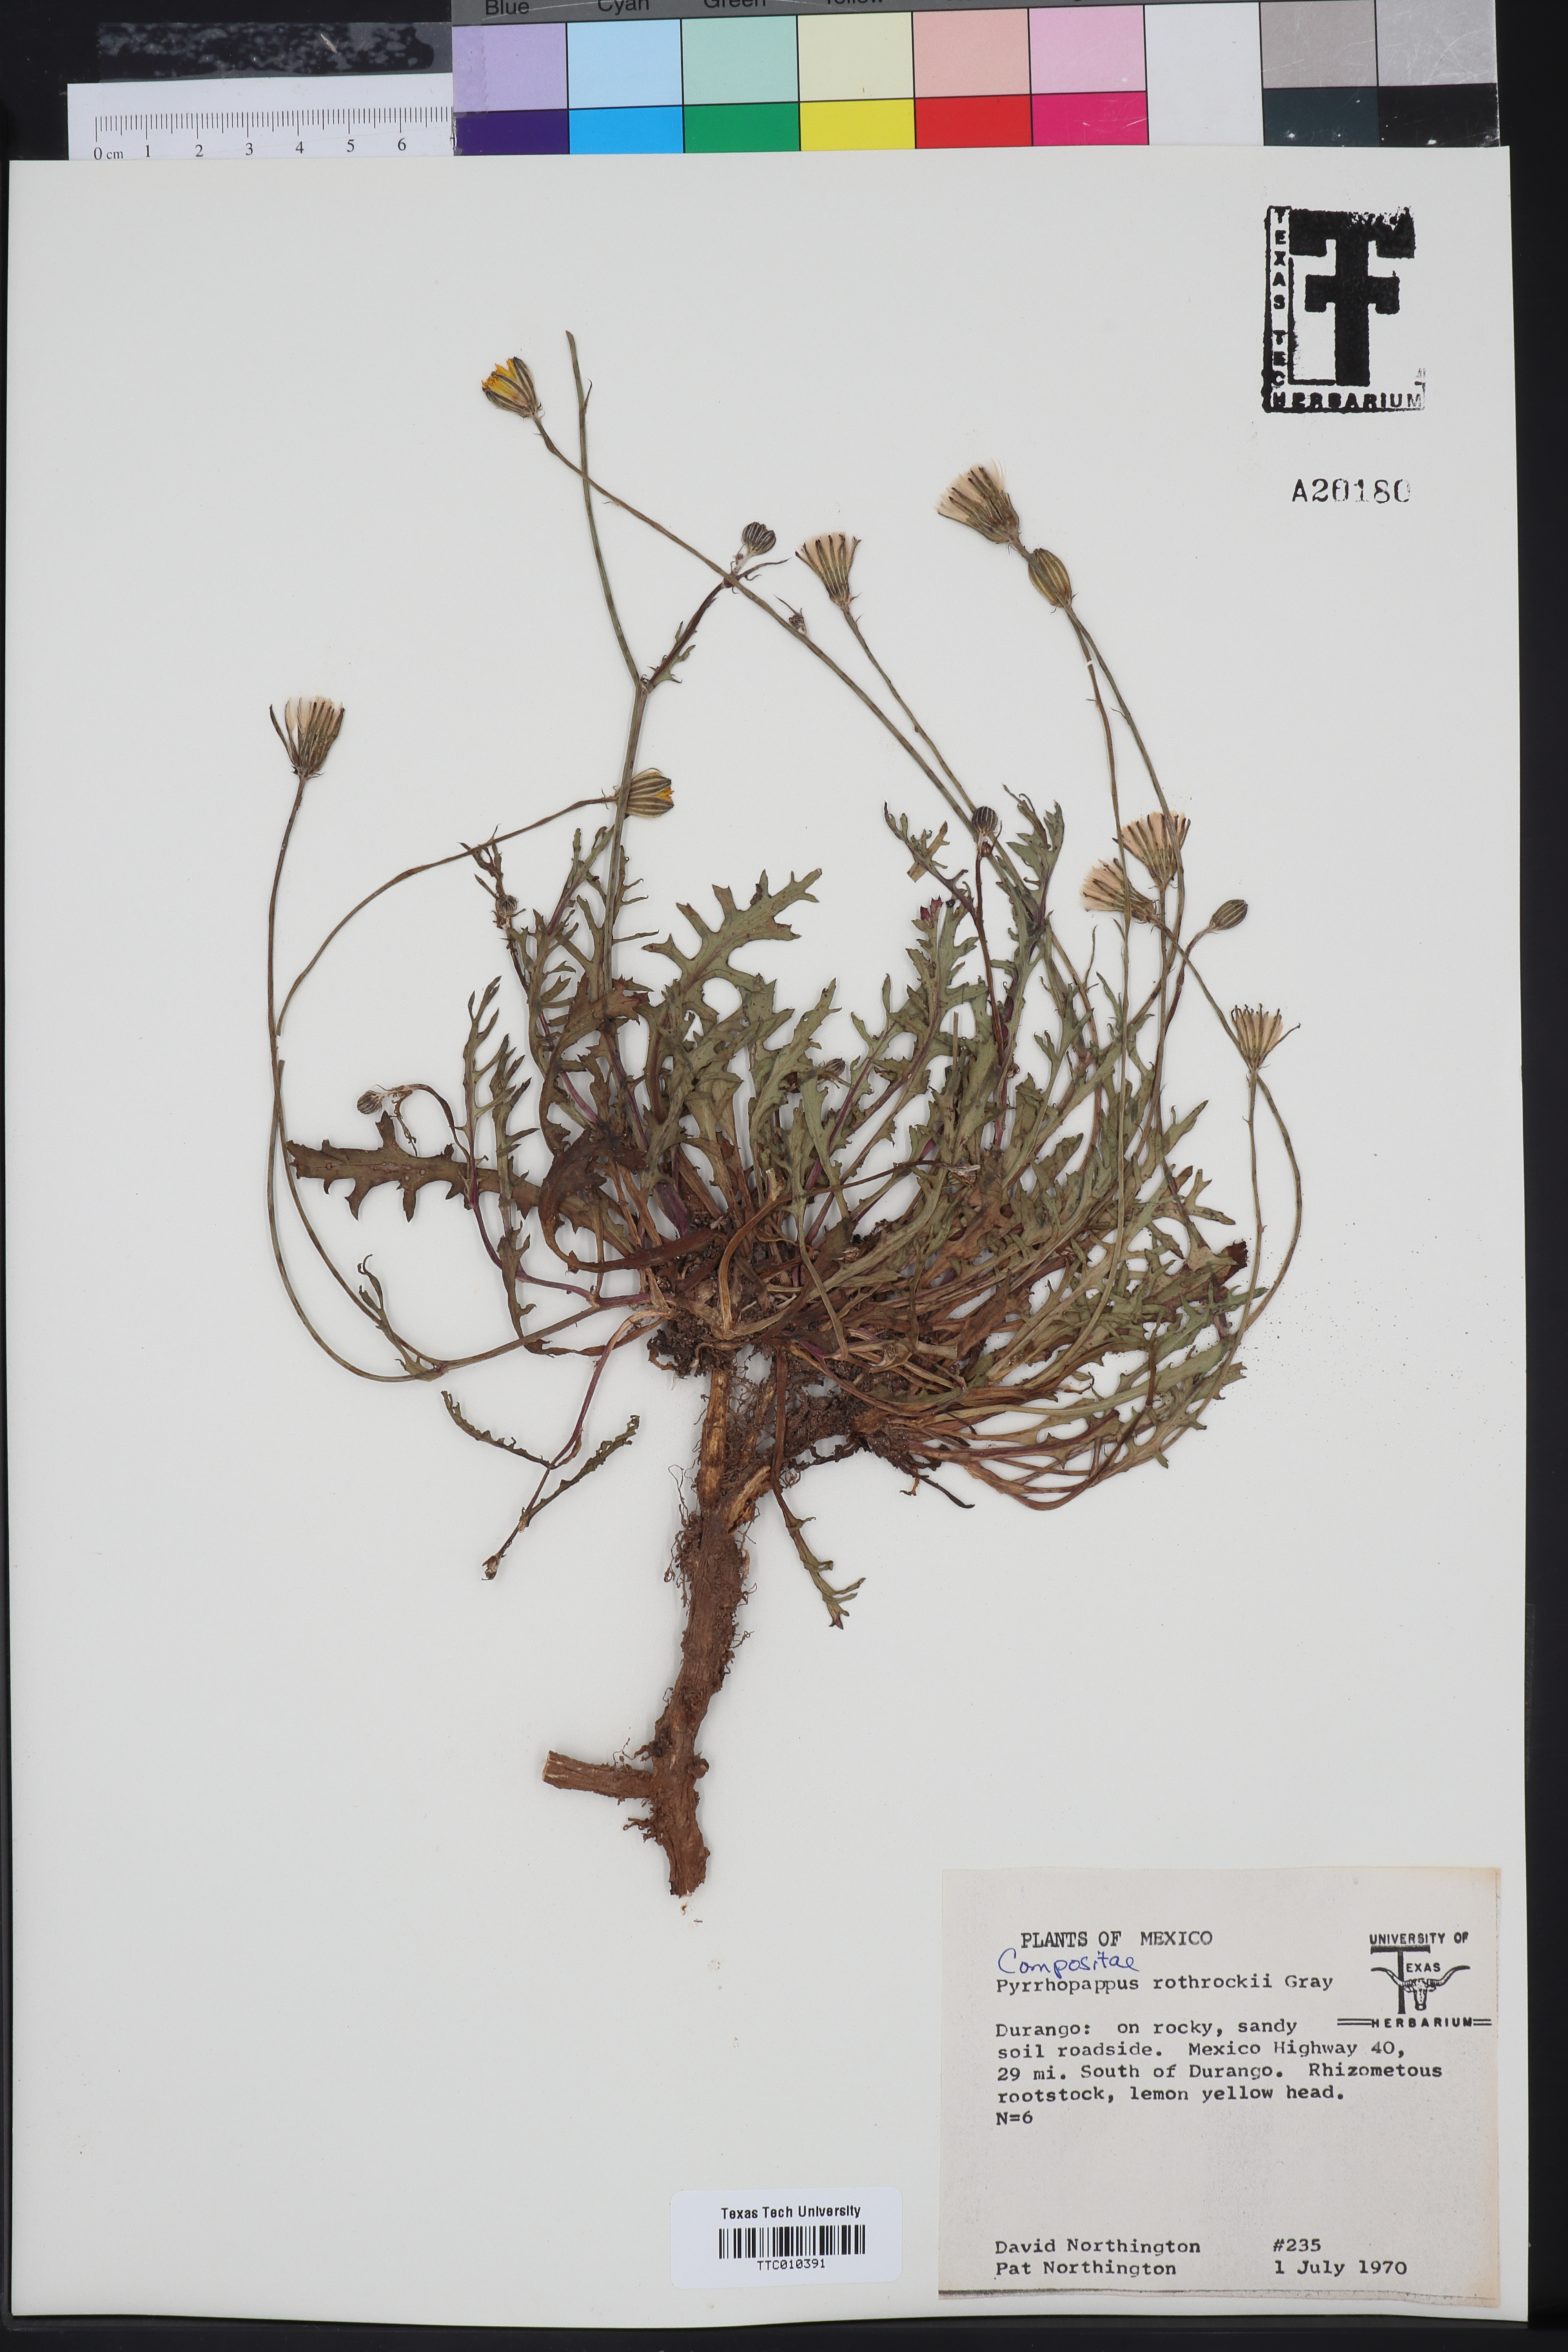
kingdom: Plantae
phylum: Tracheophyta
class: Magnoliopsida
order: Asterales
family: Asteraceae
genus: Pyrrhopappus
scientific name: Pyrrhopappus rothrockii
